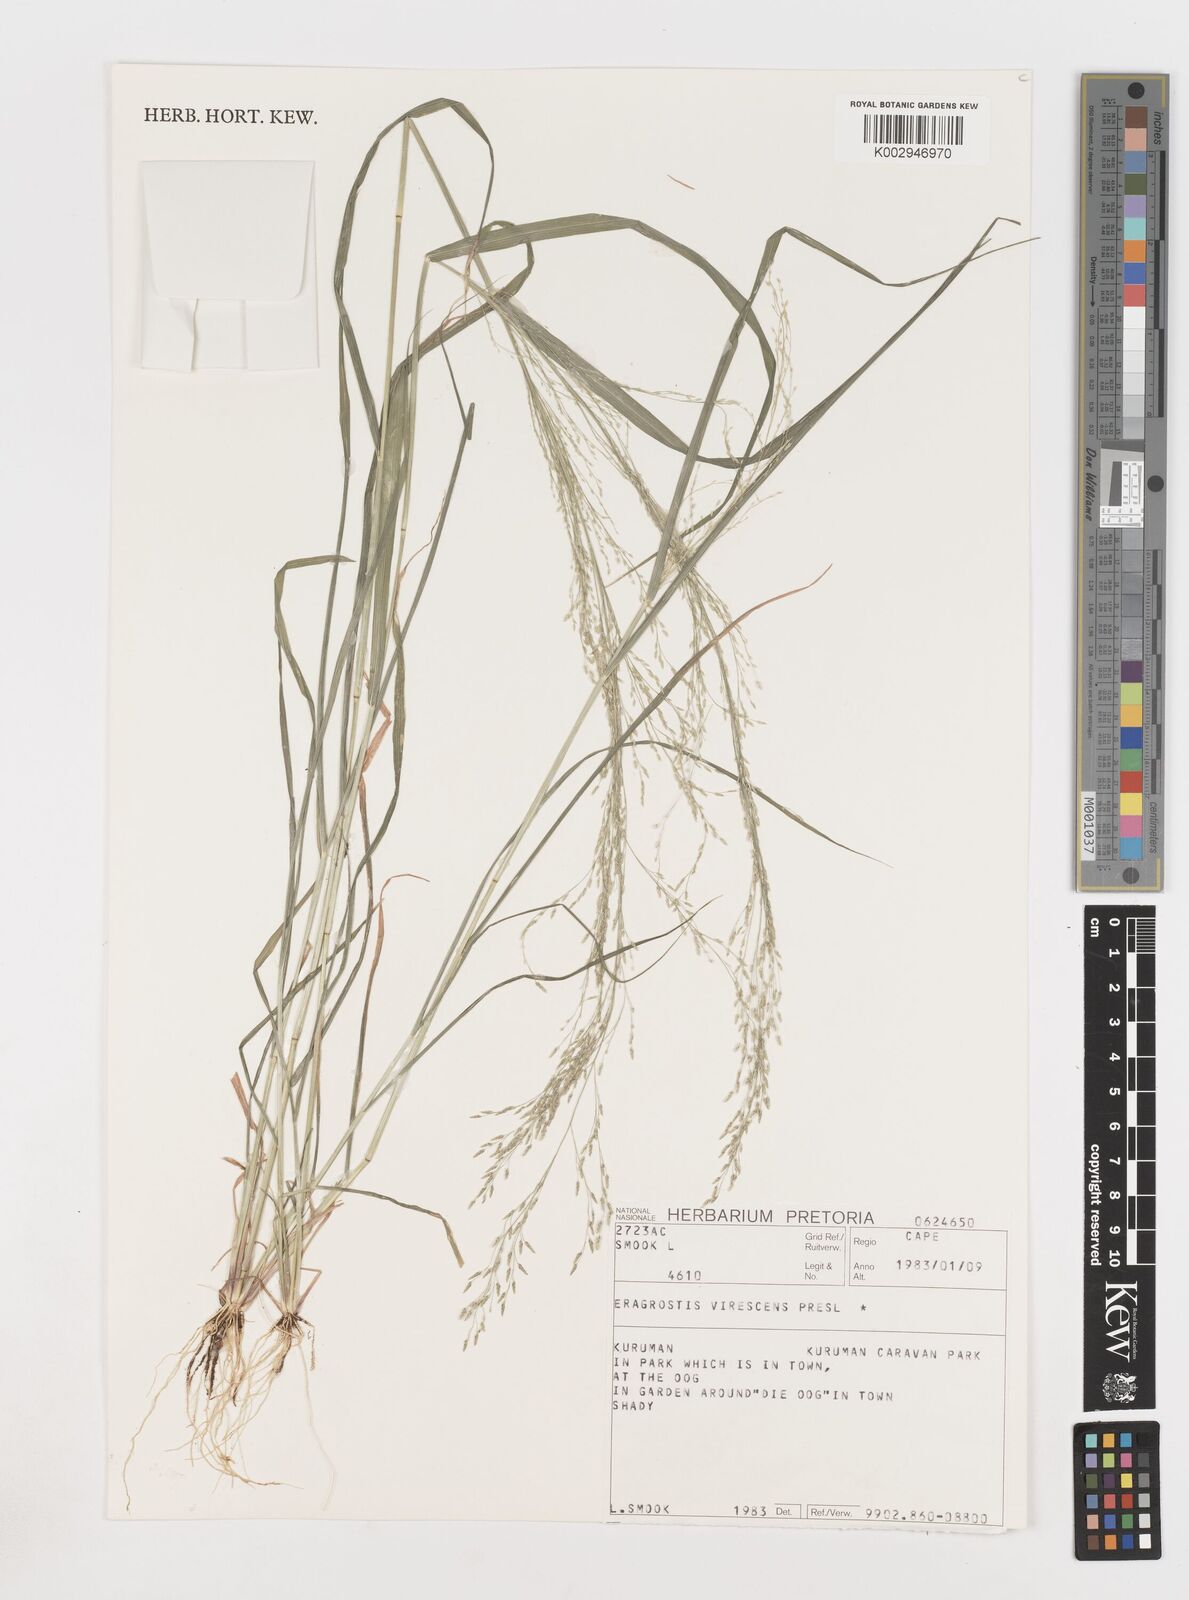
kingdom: Plantae
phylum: Tracheophyta
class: Liliopsida
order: Poales
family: Poaceae
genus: Eragrostis
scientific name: Eragrostis
